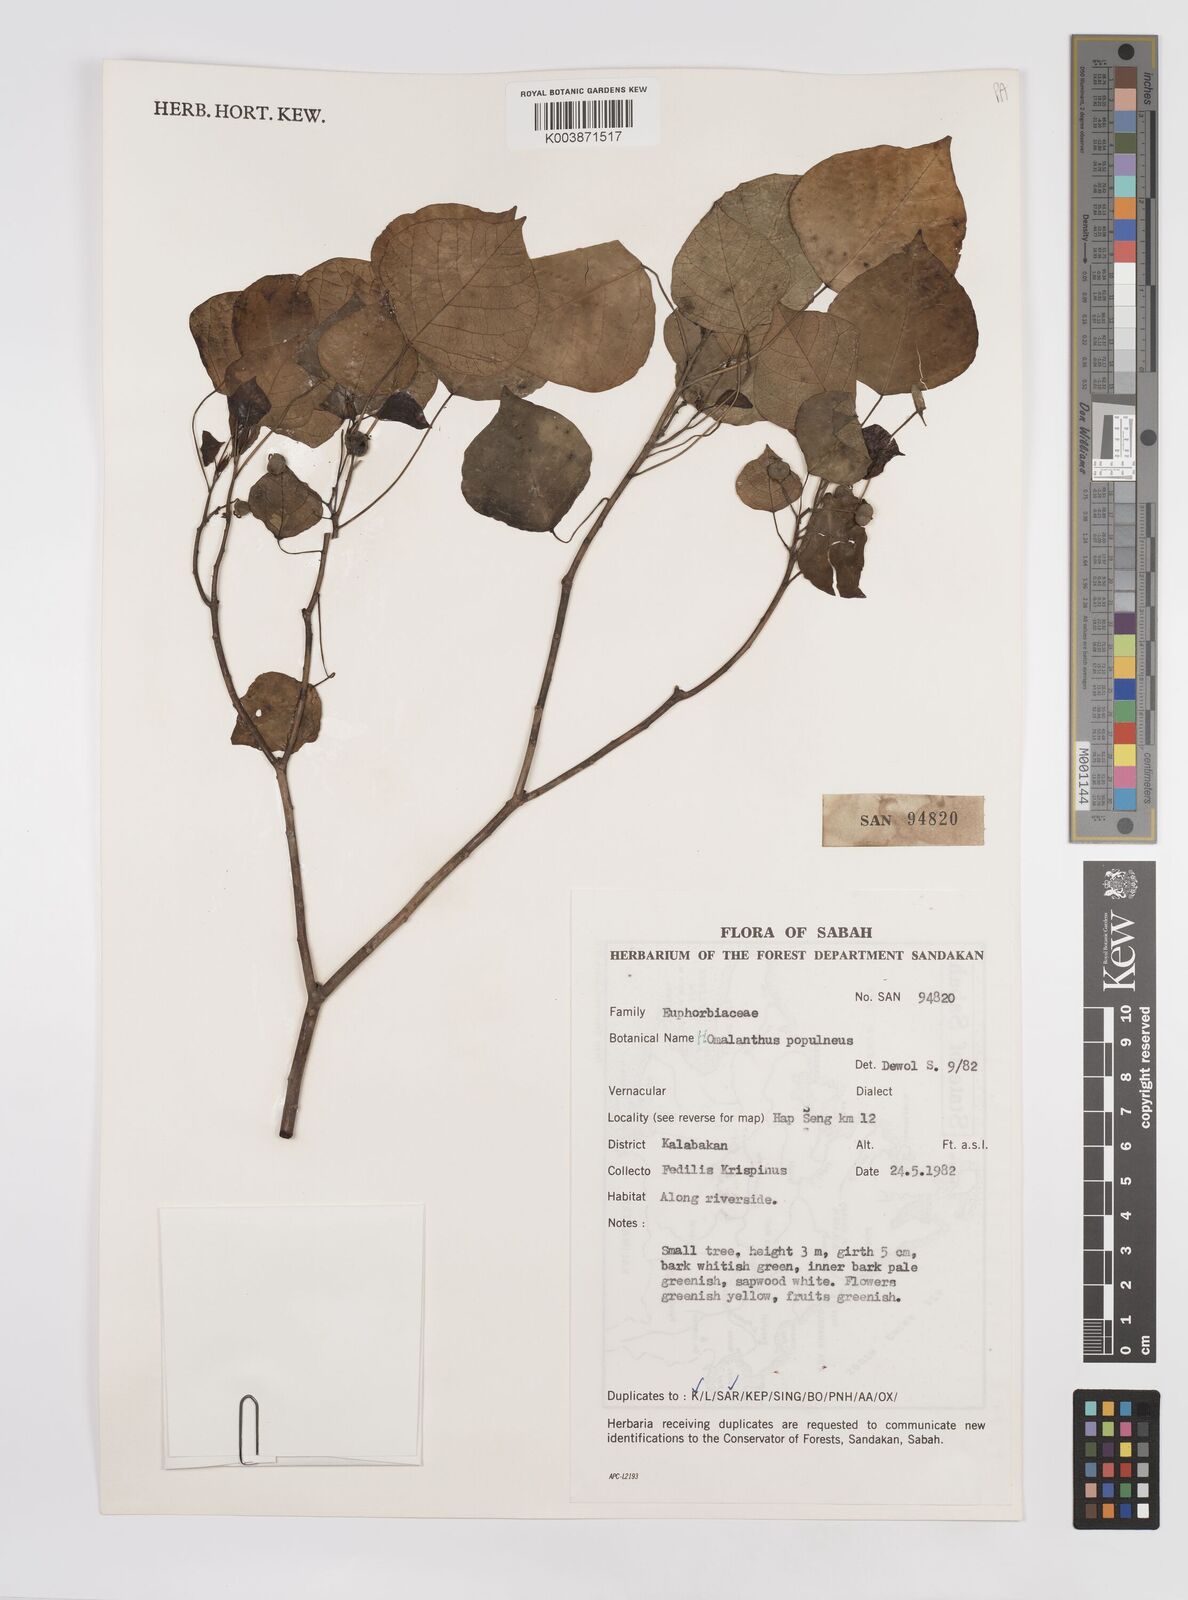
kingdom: Plantae
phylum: Tracheophyta
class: Magnoliopsida
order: Malpighiales
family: Euphorbiaceae
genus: Homalanthus
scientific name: Homalanthus populneus
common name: Spurge
